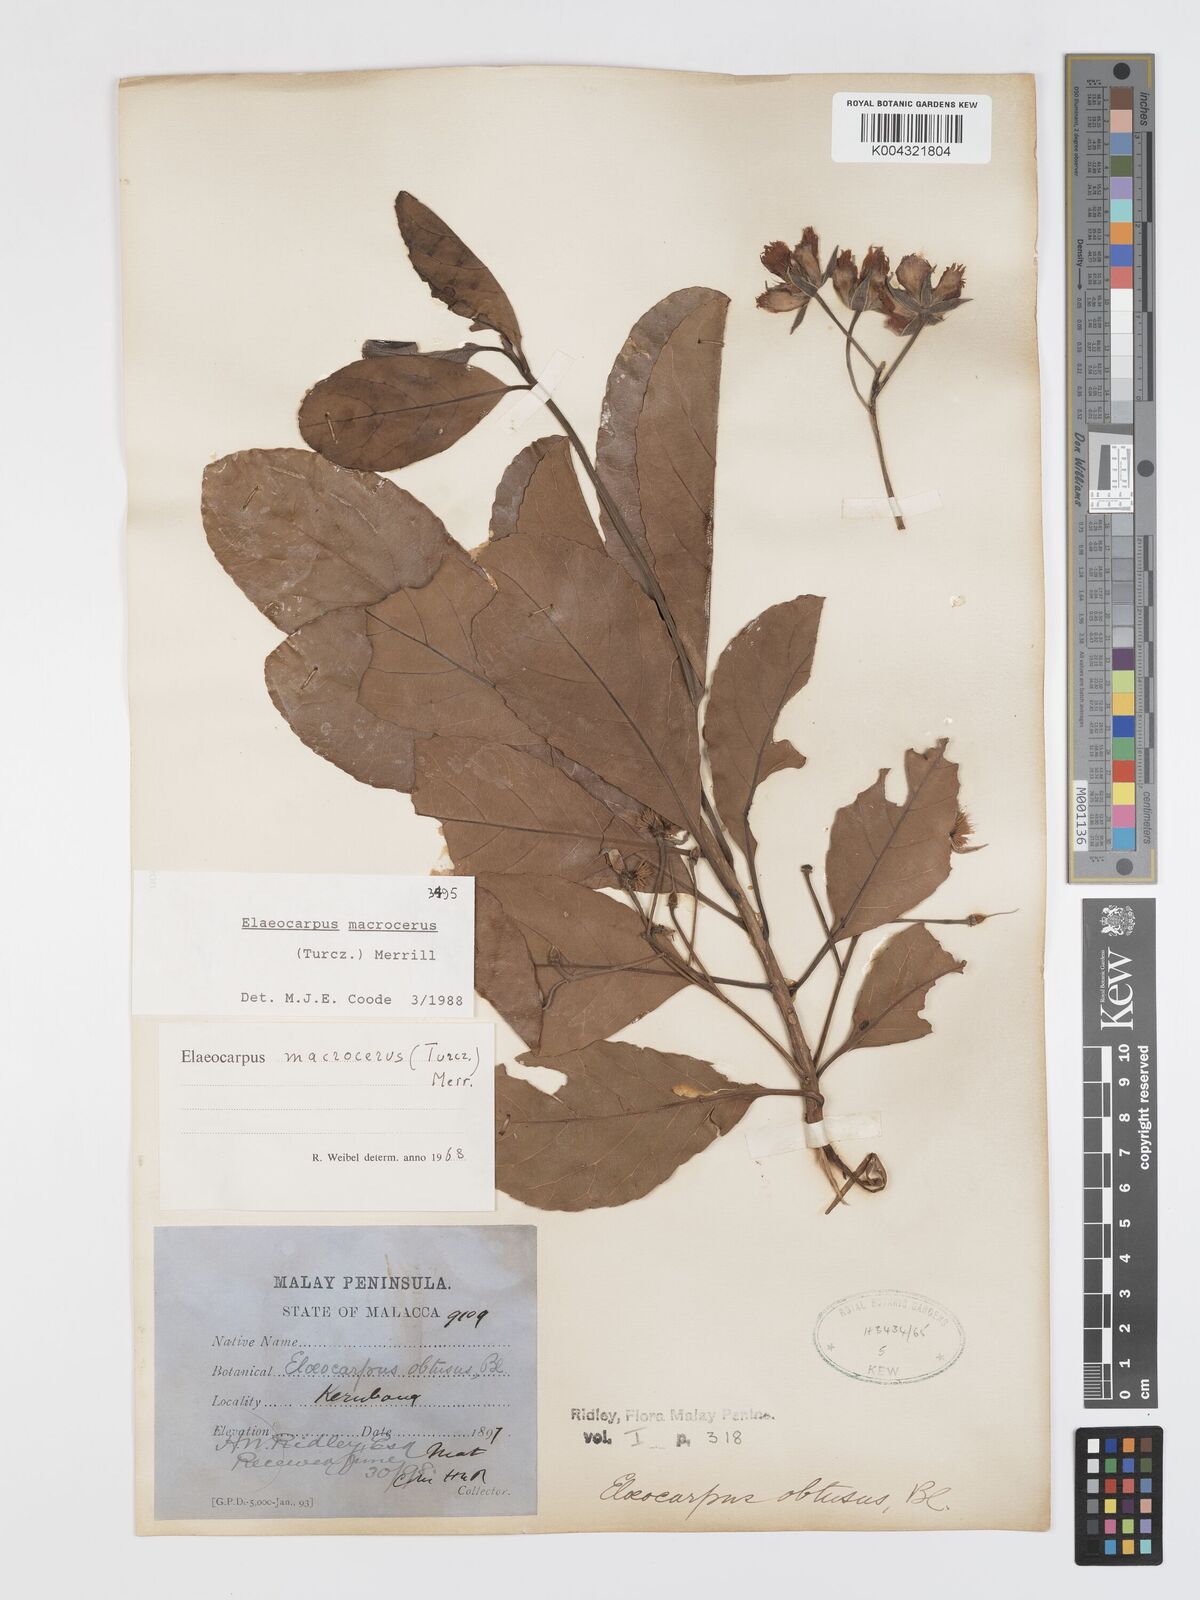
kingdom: Plantae
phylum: Tracheophyta
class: Magnoliopsida
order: Oxalidales
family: Elaeocarpaceae
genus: Elaeocarpus
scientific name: Elaeocarpus macrocerus
